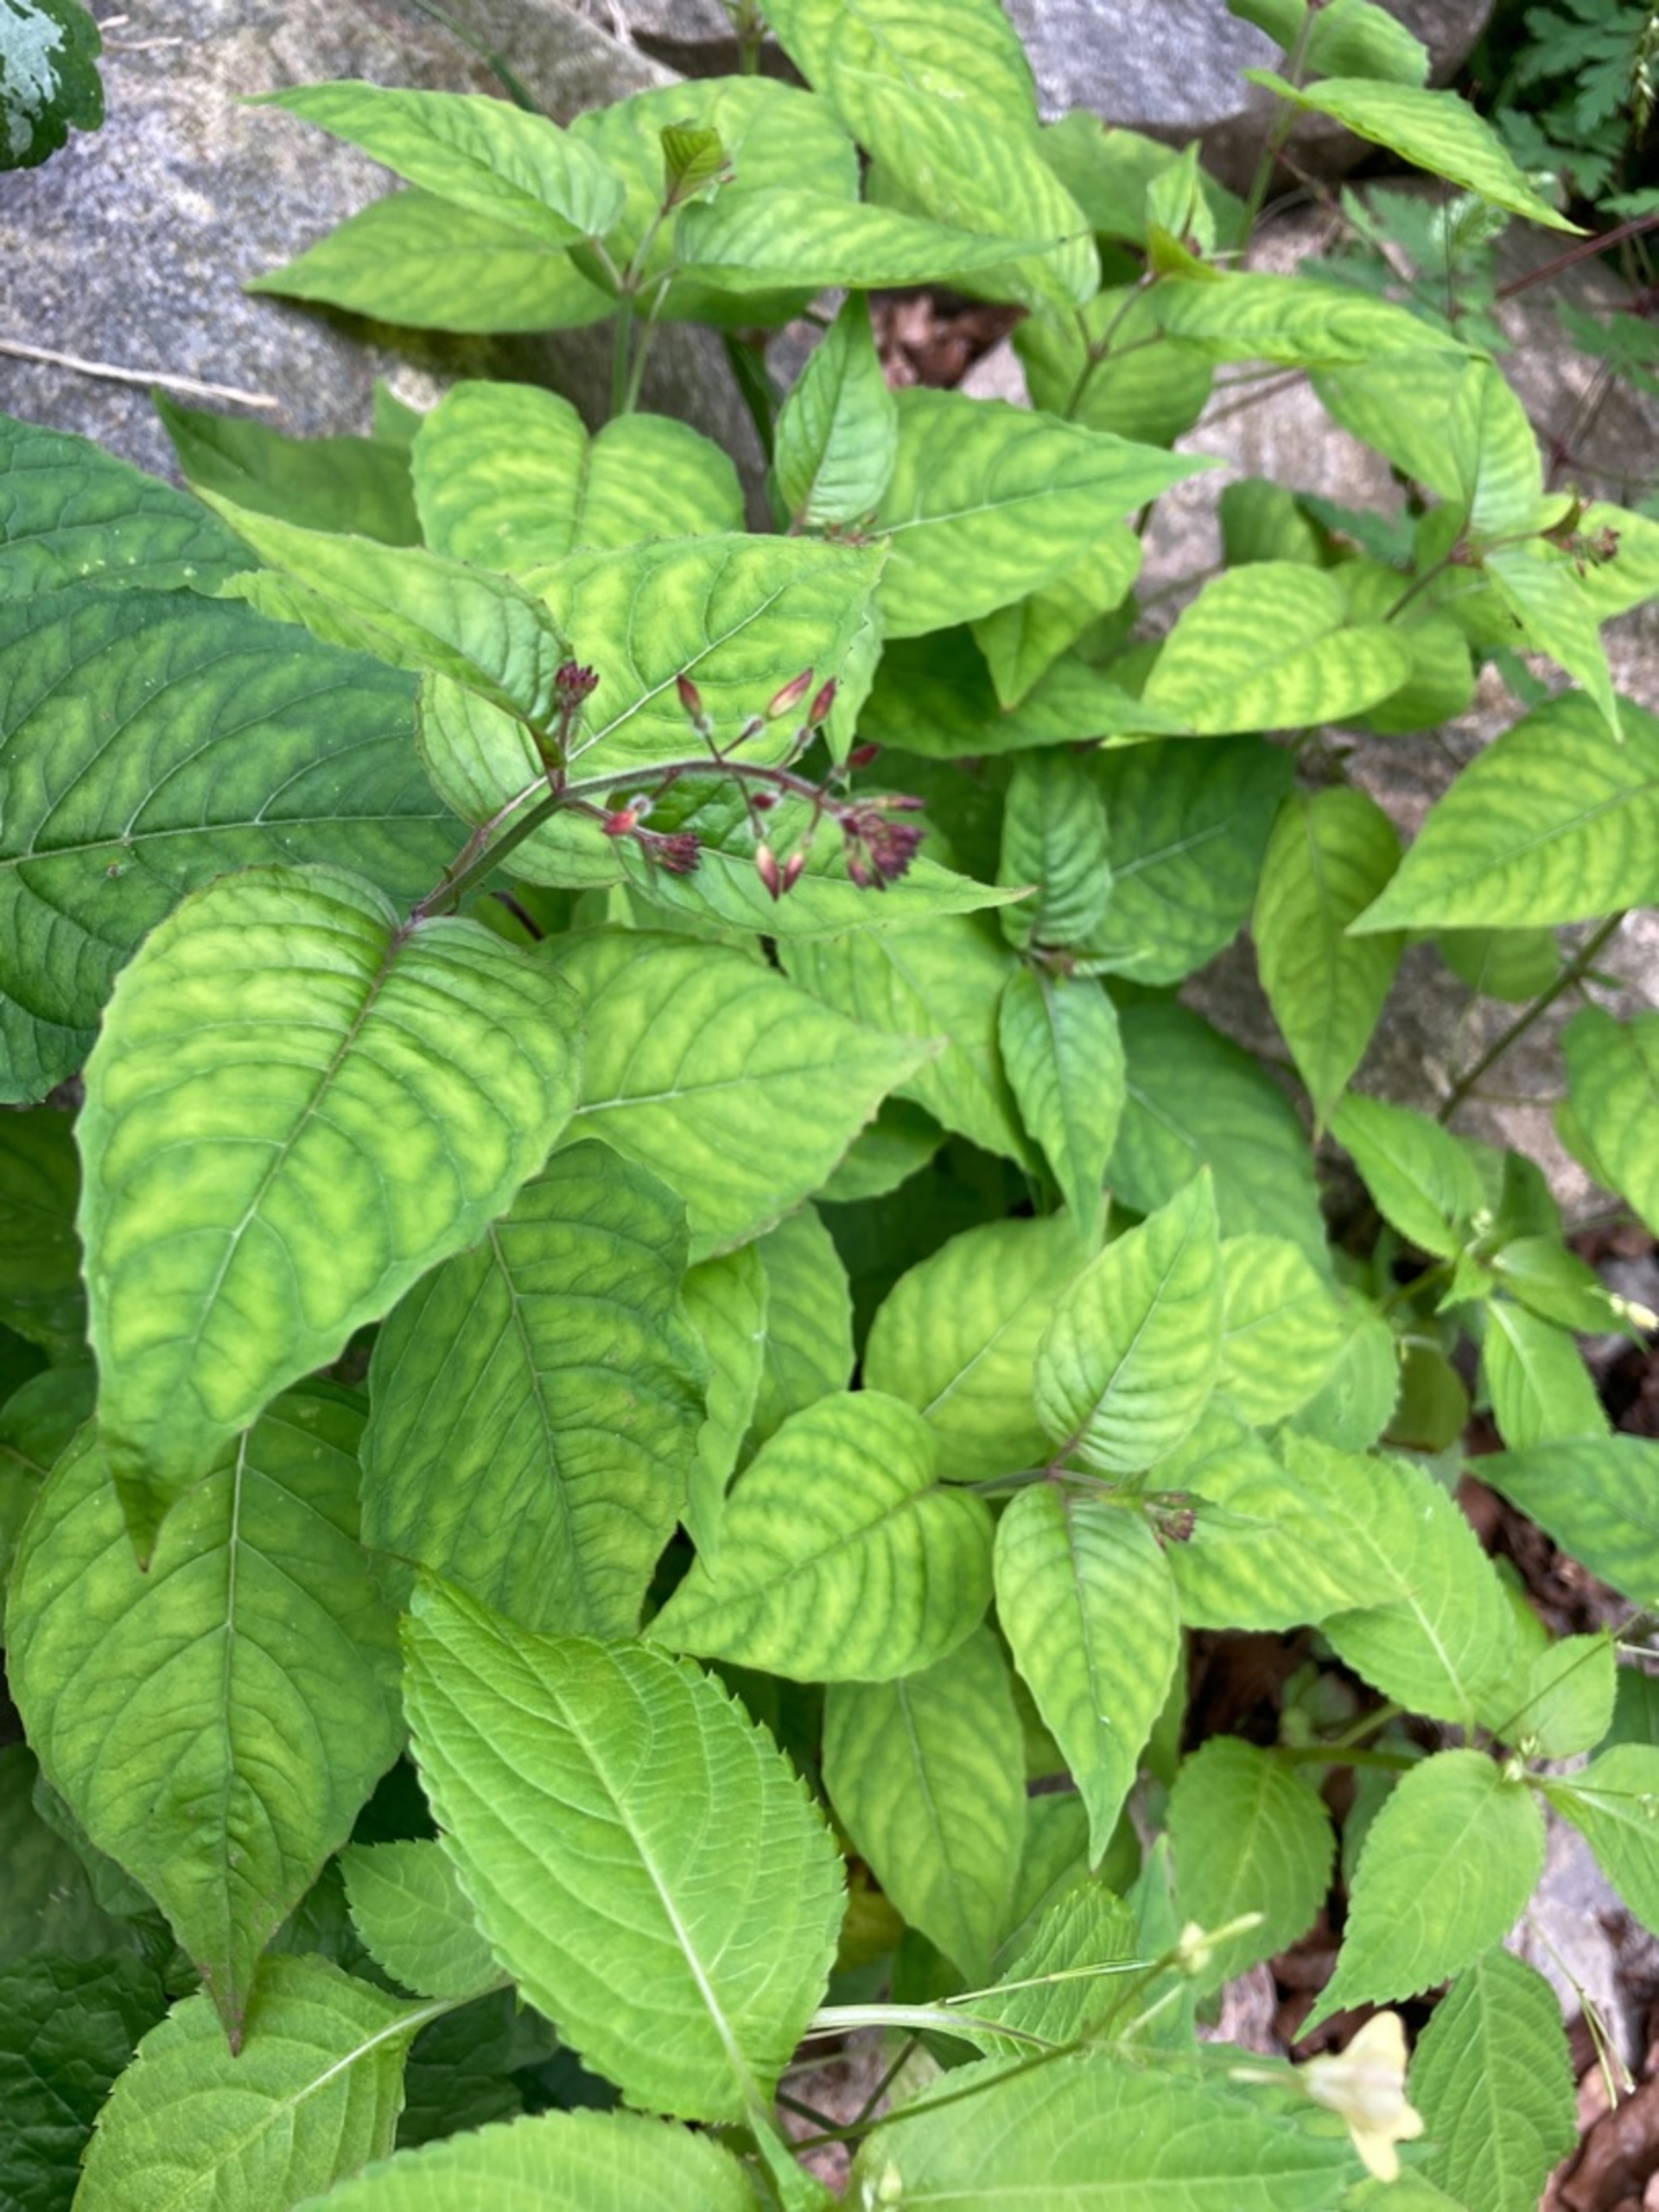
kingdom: Plantae
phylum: Tracheophyta
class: Magnoliopsida
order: Myrtales
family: Onagraceae
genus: Circaea
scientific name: Circaea lutetiana
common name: Dunet steffensurt
